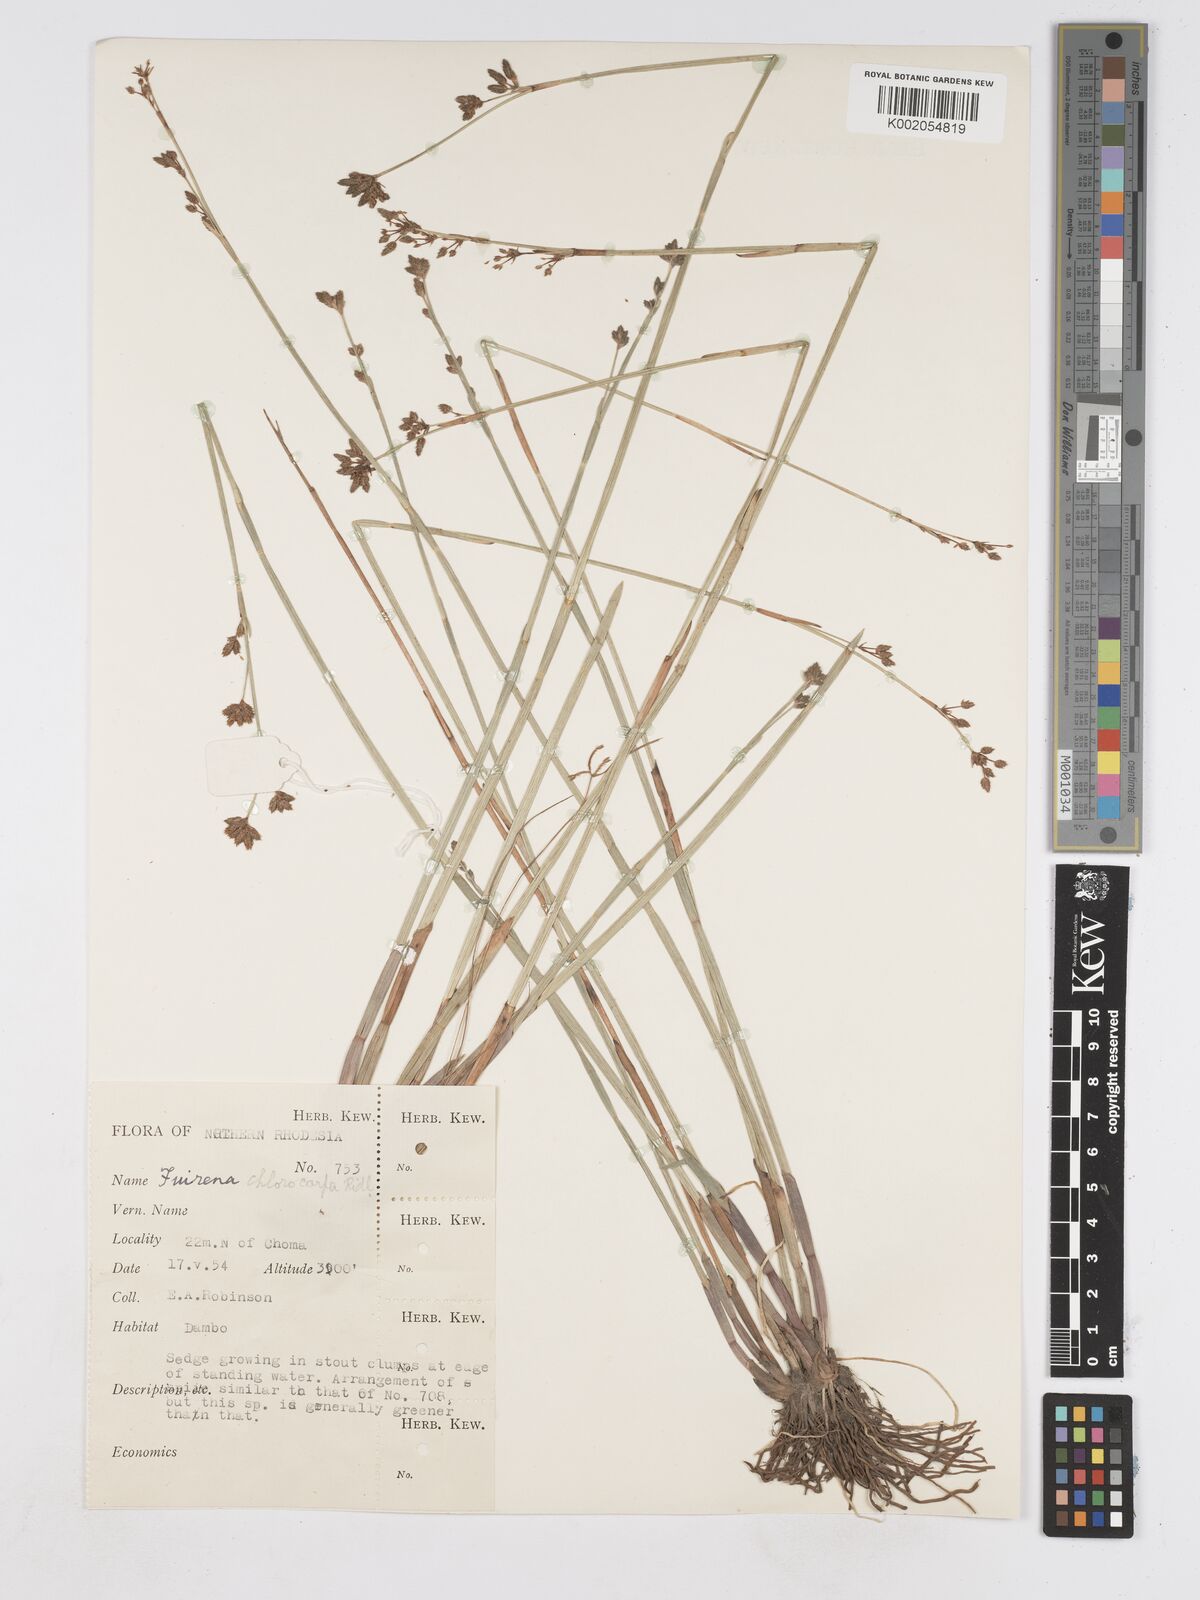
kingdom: Plantae
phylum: Tracheophyta
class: Liliopsida
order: Poales
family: Cyperaceae
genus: Fuirena
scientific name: Fuirena stricta
